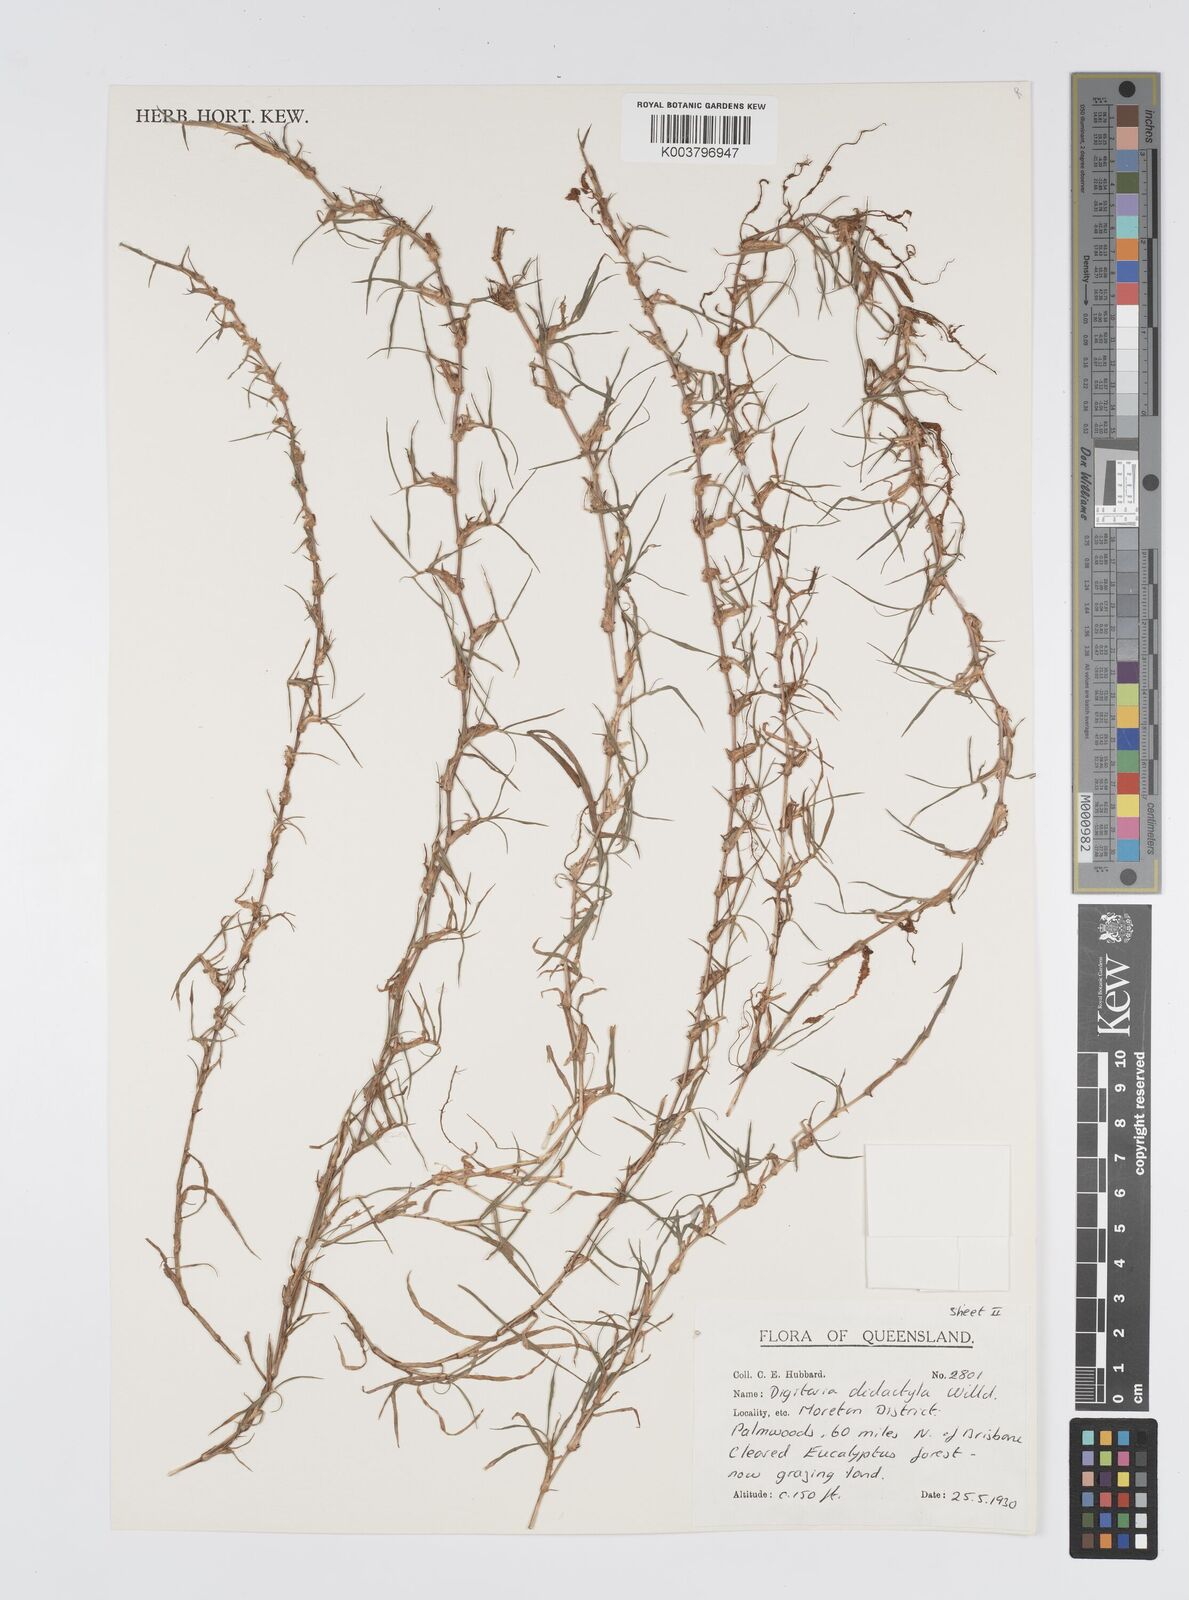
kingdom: Plantae
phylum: Tracheophyta
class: Liliopsida
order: Poales
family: Poaceae
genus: Digitaria
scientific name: Digitaria didactyla
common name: Blue couch
